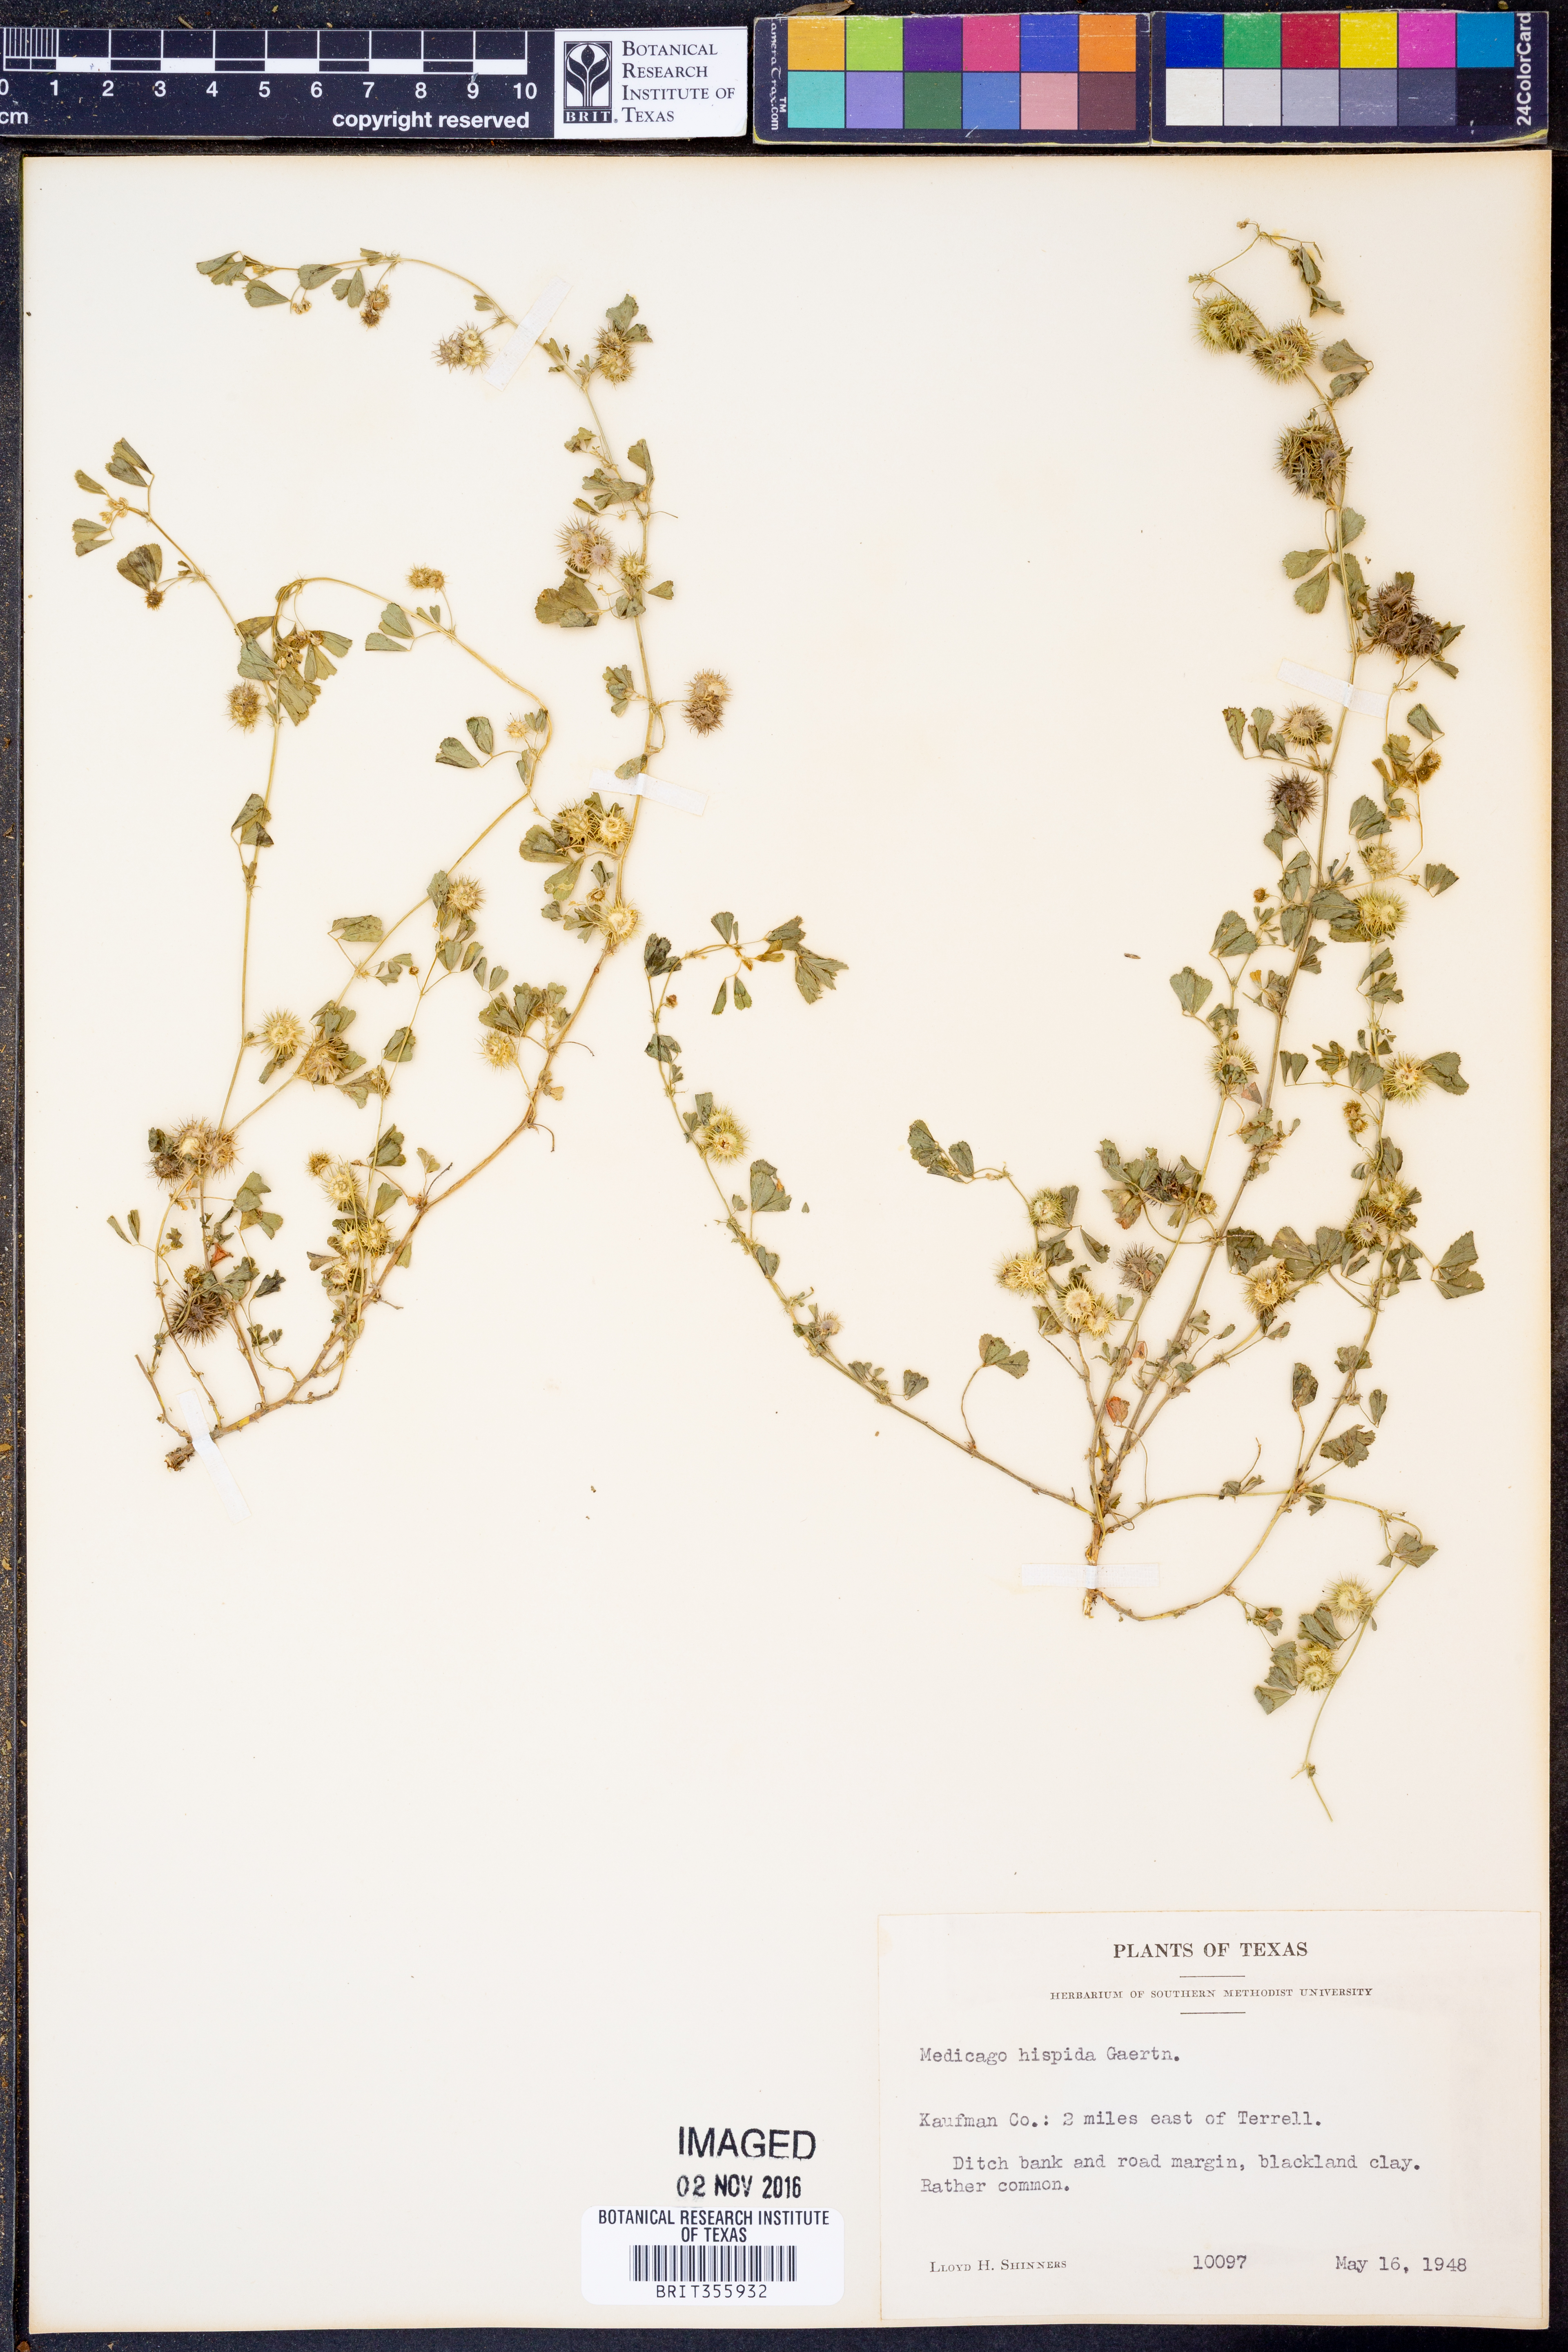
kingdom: Plantae
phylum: Tracheophyta
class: Magnoliopsida
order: Fabales
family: Fabaceae
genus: Medicago
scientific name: Medicago polymorpha
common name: Burclover
